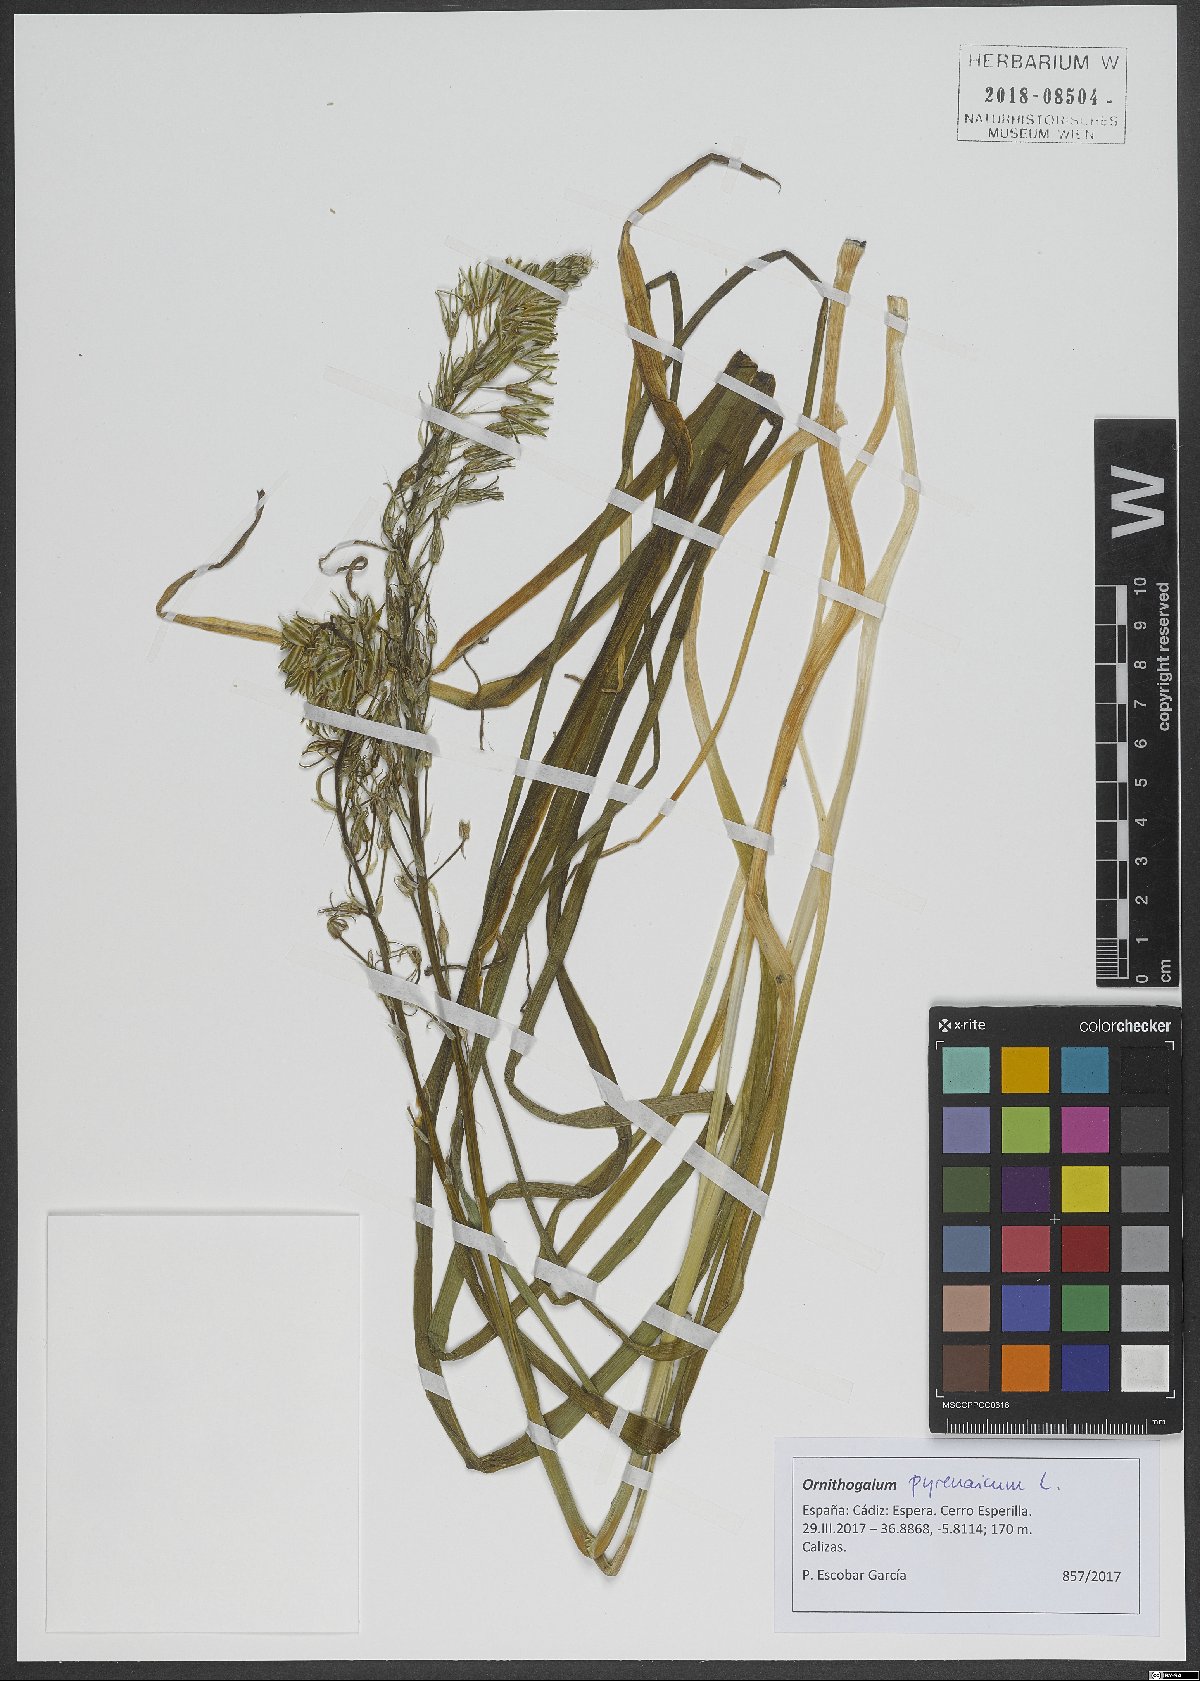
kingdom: Plantae
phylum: Tracheophyta
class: Liliopsida
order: Asparagales
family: Asparagaceae
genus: Ornithogalum
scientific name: Ornithogalum pyrenaicum
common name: Spiked star-of-bethlehem
